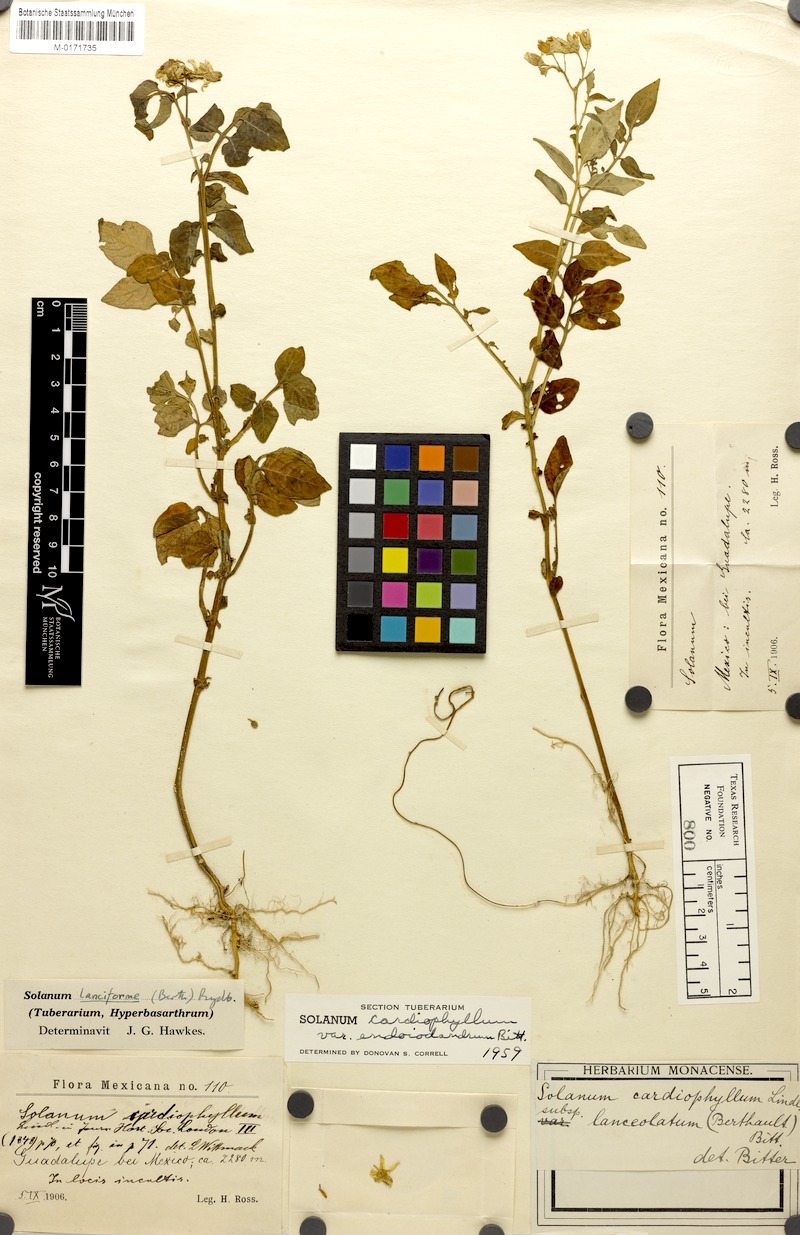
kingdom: Plantae
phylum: Tracheophyta
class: Magnoliopsida
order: Solanales
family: Solanaceae
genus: Solanum
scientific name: Solanum cardiophyllum
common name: Heartleaf horsenettle
